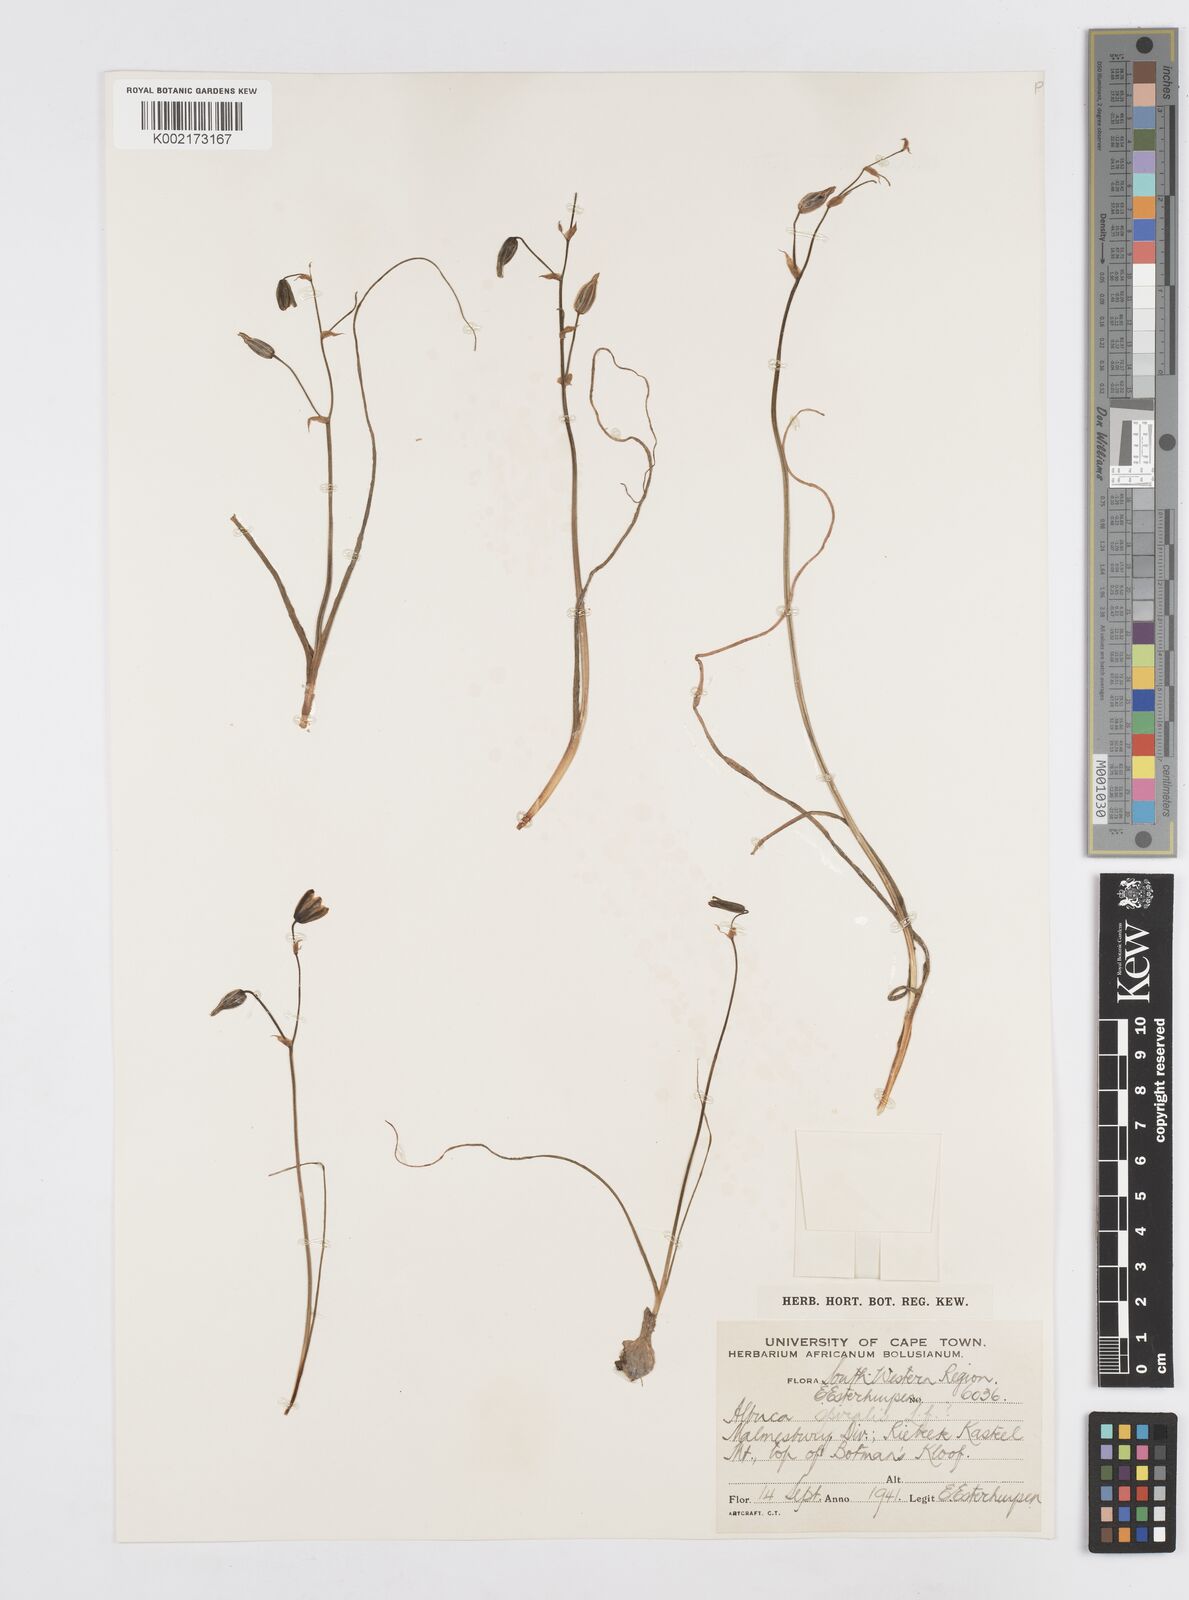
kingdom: Plantae
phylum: Tracheophyta
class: Liliopsida
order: Asparagales
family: Asparagaceae
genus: Albuca
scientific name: Albuca
